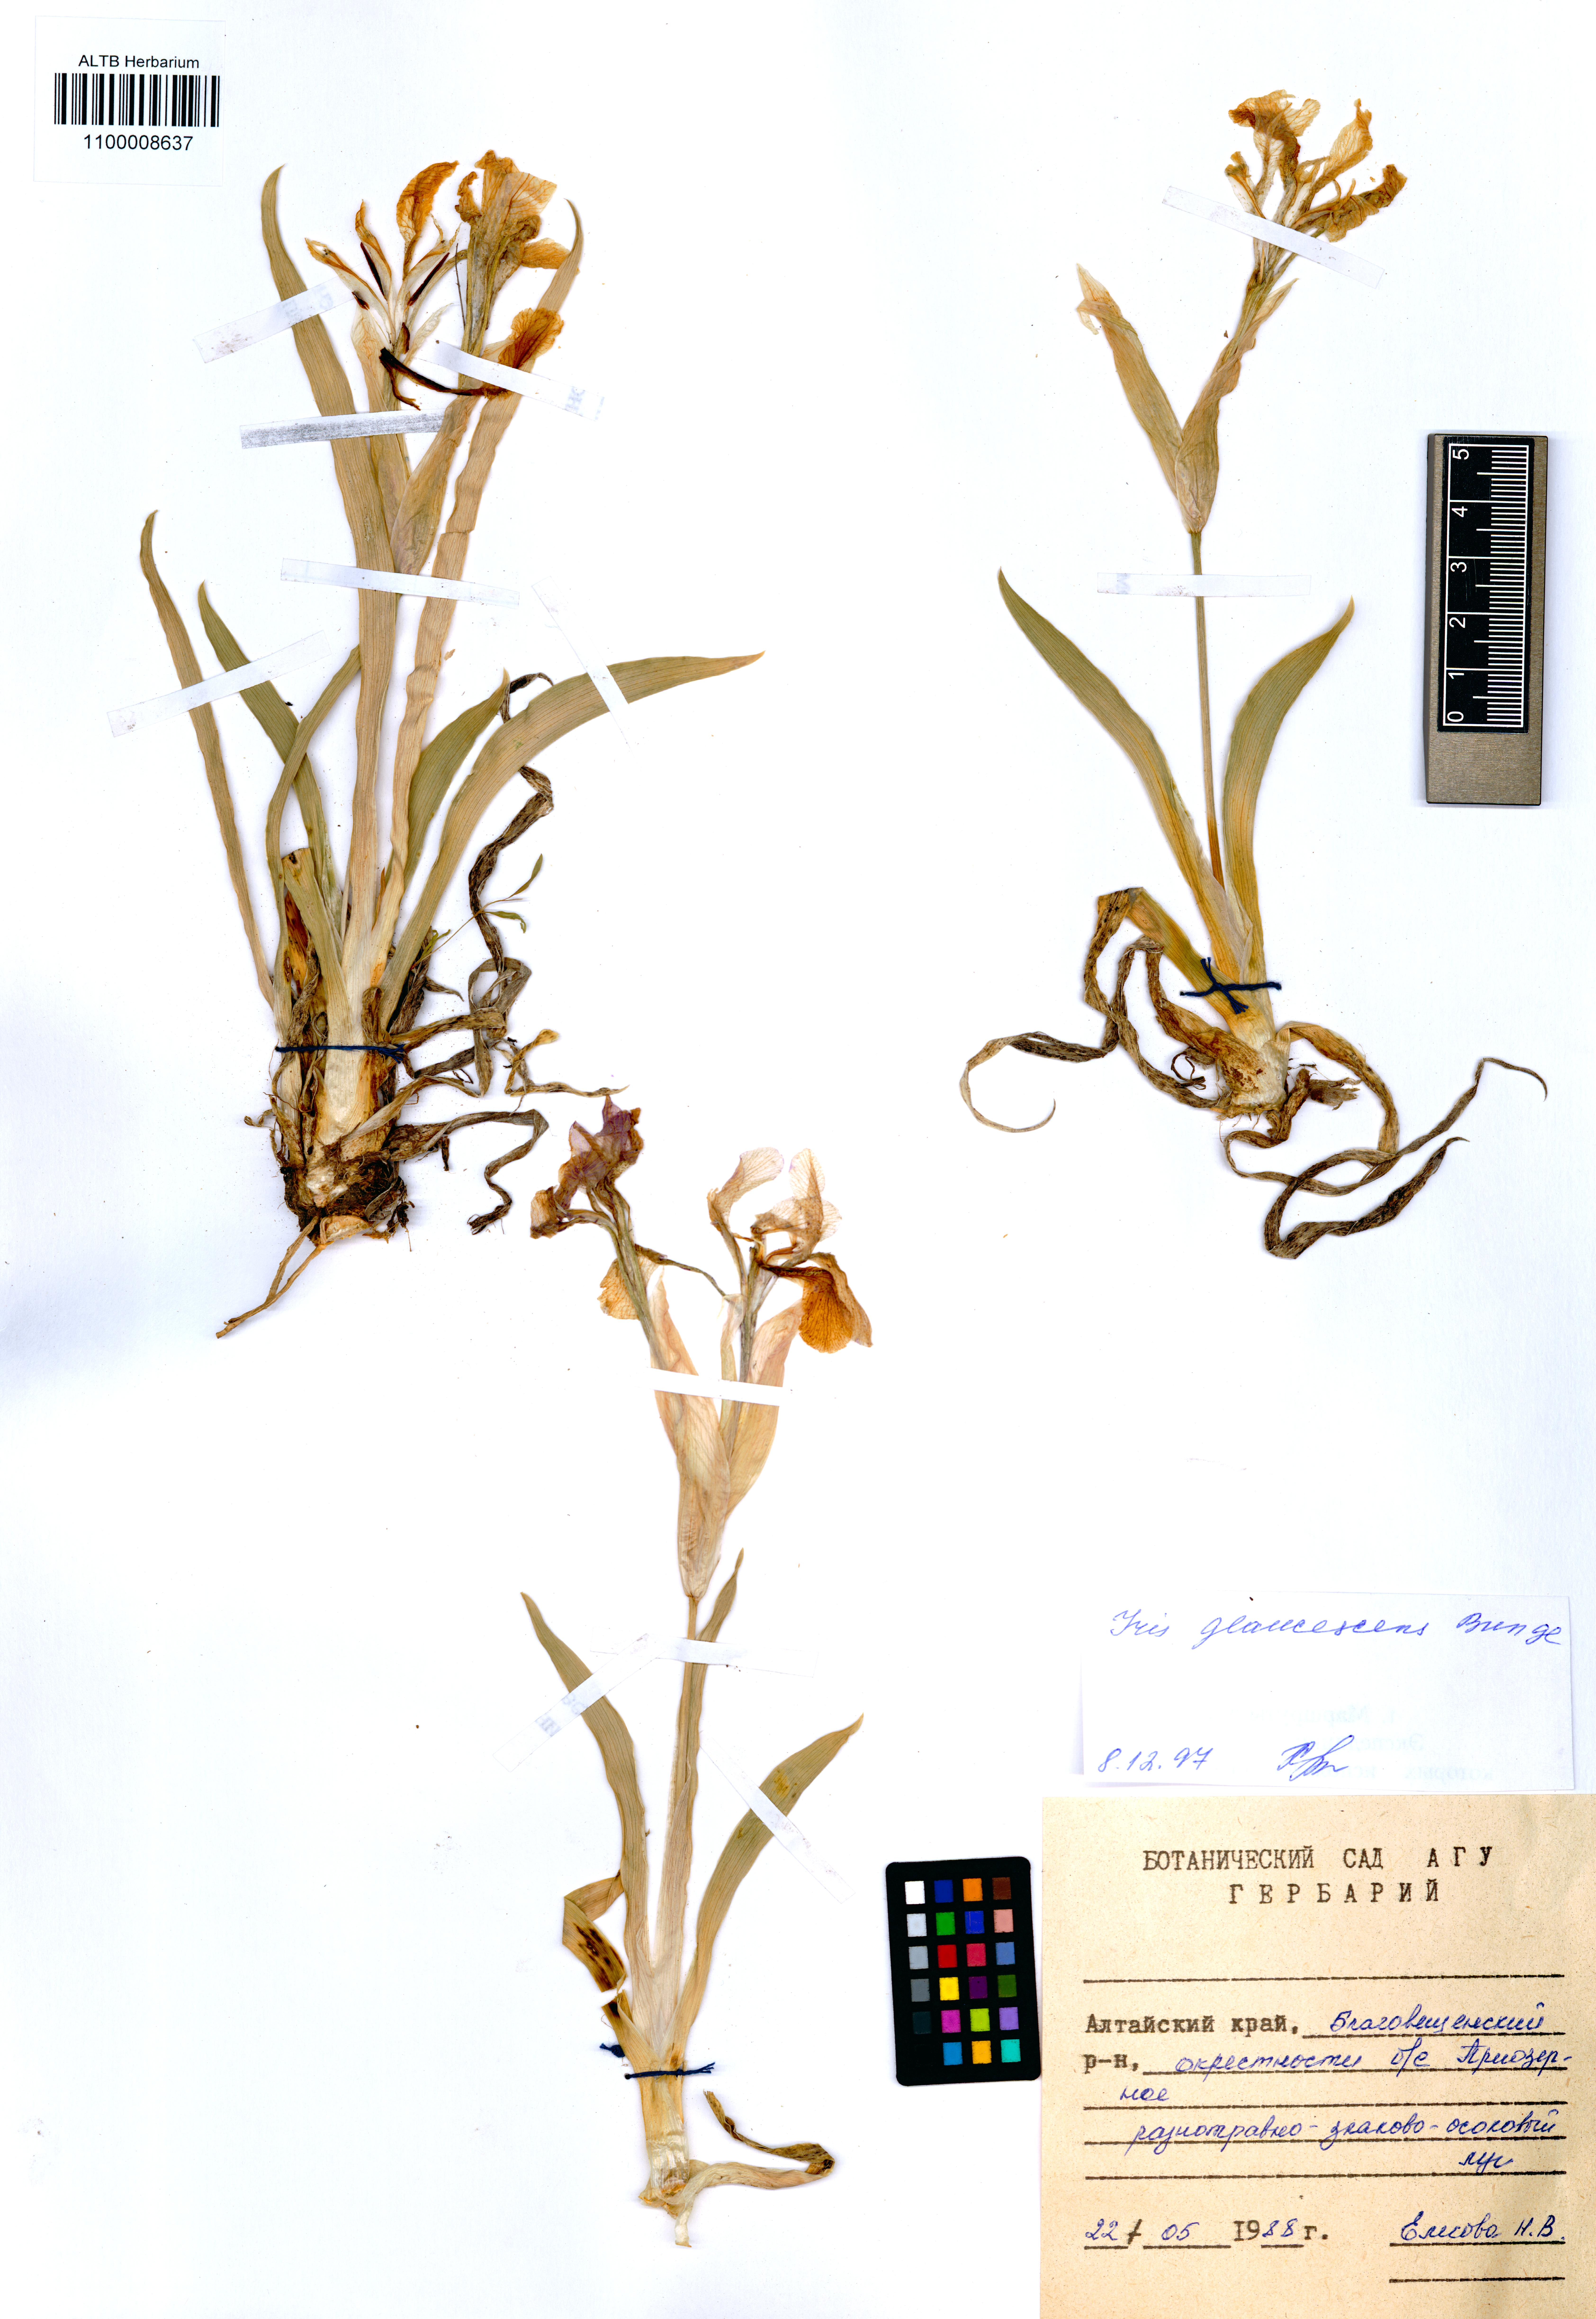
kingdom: Plantae
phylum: Tracheophyta
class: Liliopsida
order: Asparagales
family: Iridaceae
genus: Iris
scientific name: Iris glaucescens
